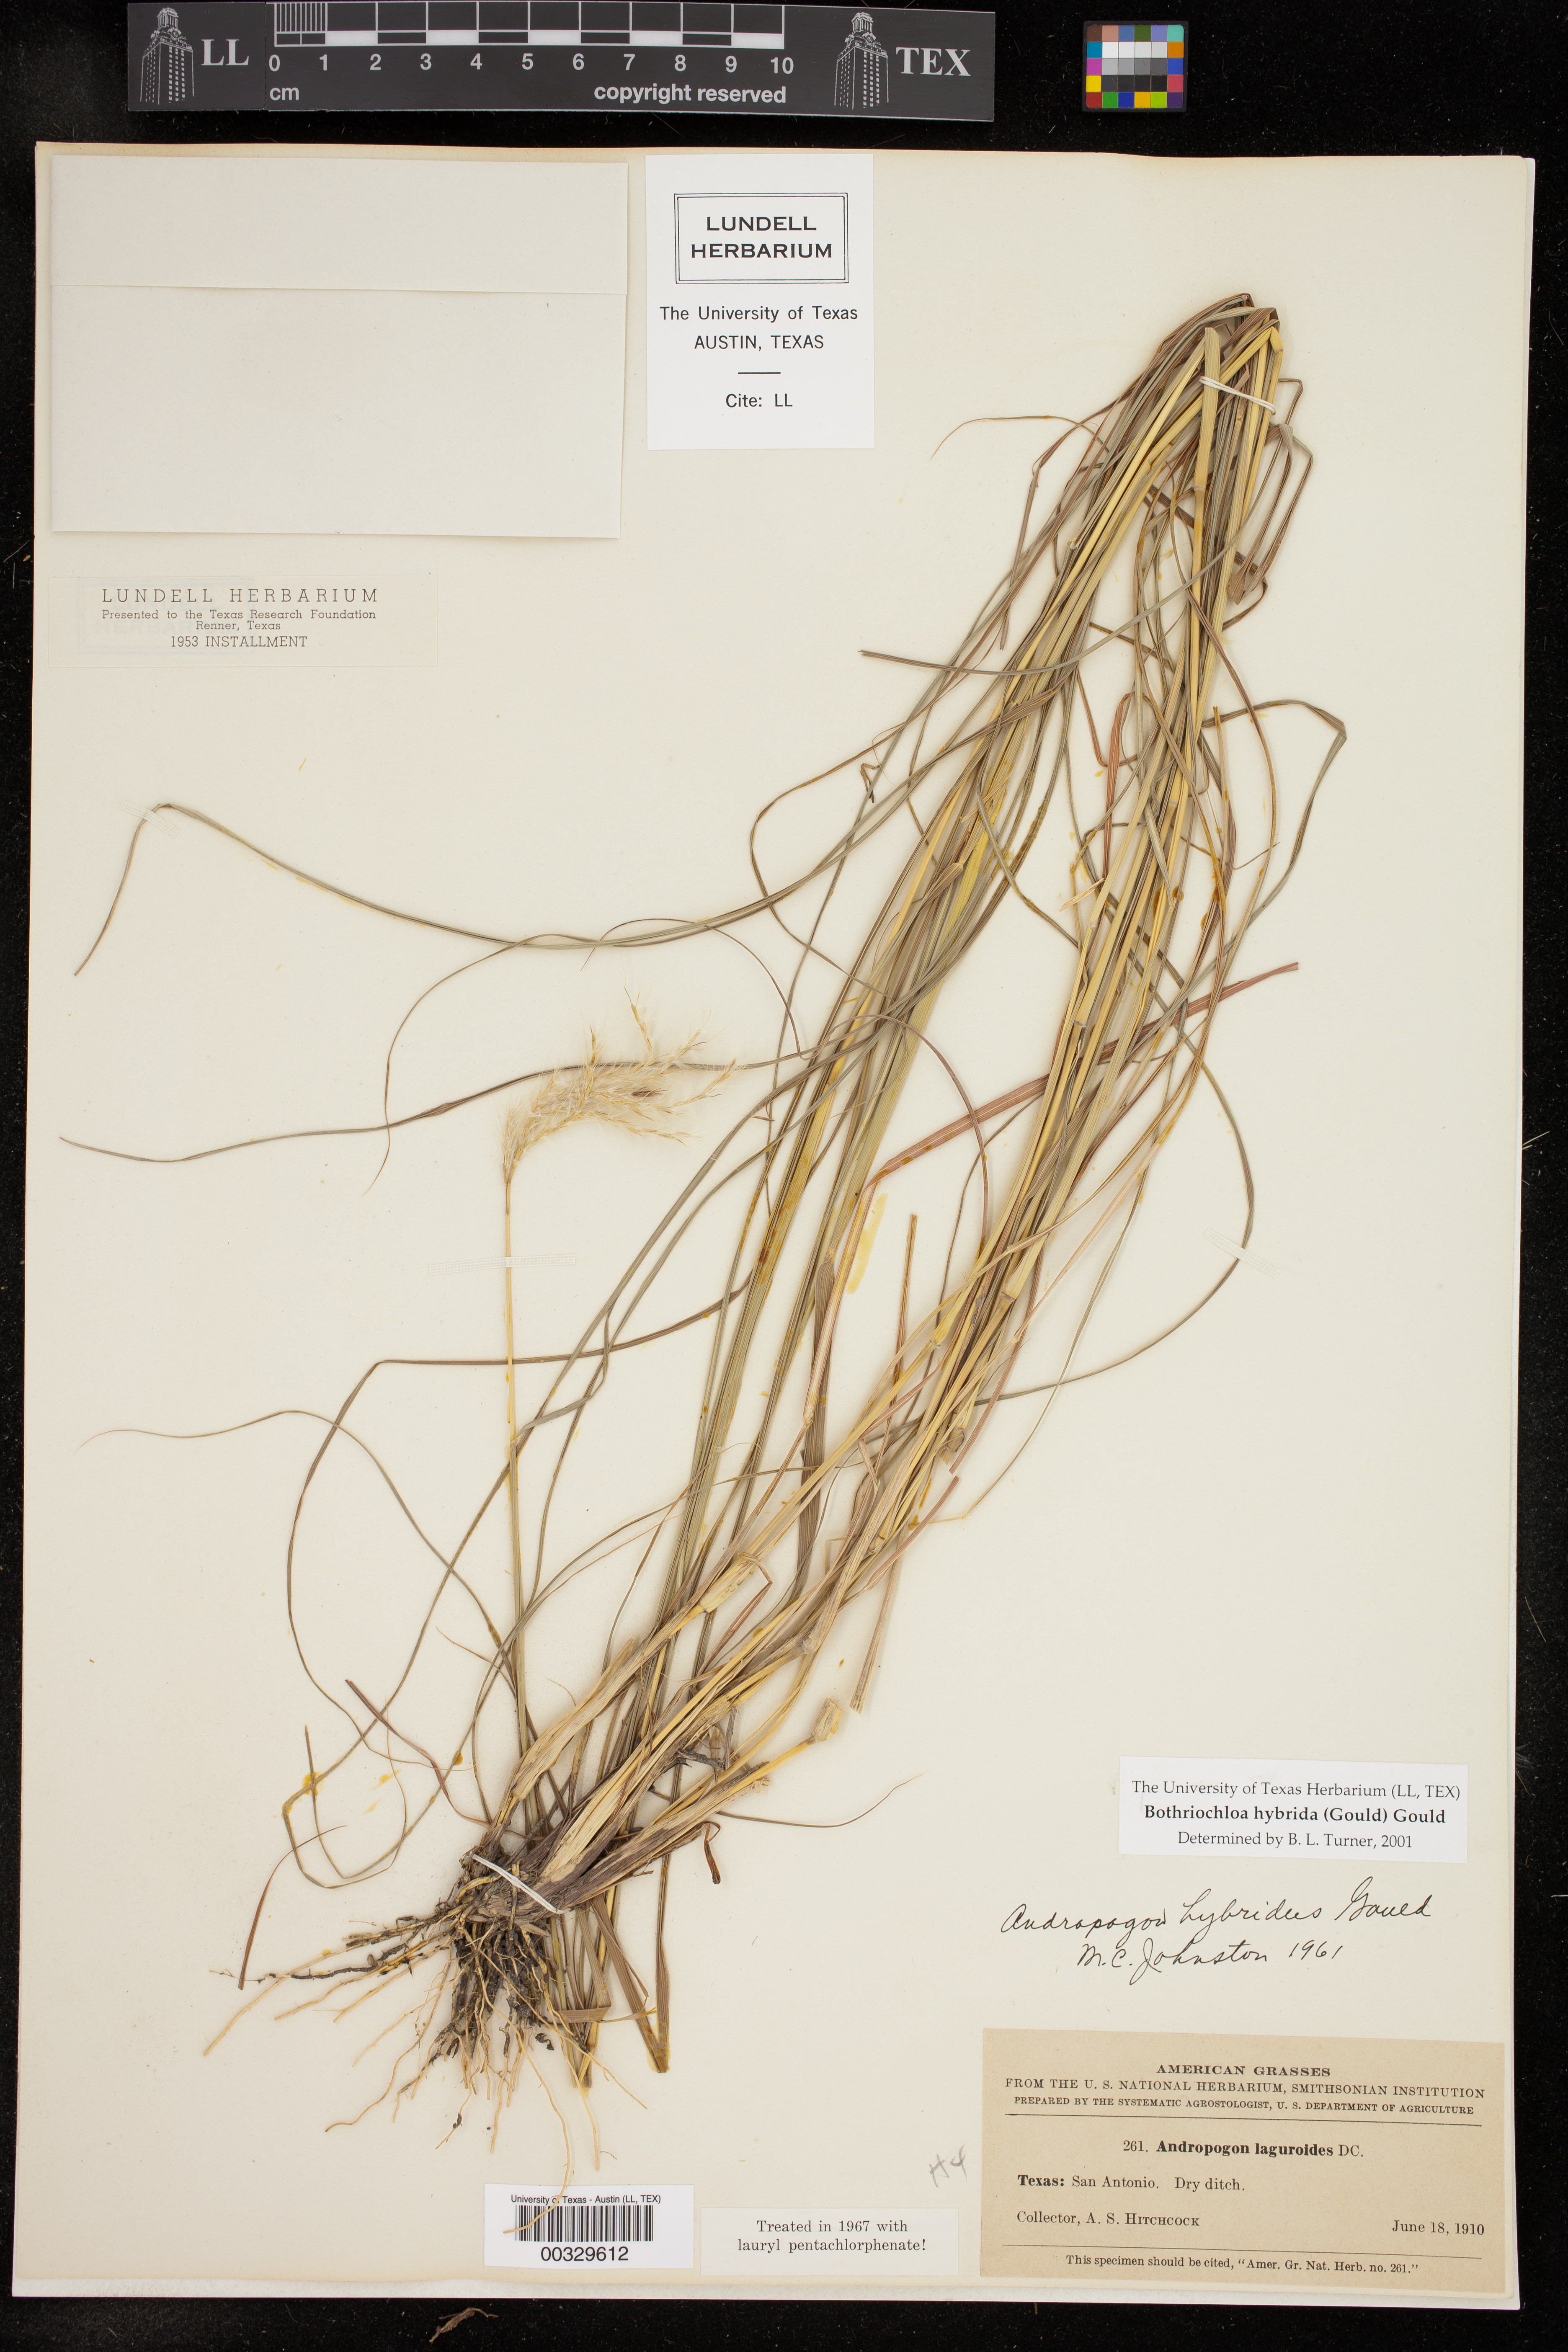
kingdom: Plantae
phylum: Tracheophyta
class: Liliopsida
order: Poales
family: Poaceae
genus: Bothriochloa
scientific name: Bothriochloa hybrida
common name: Hybrid bluestem
